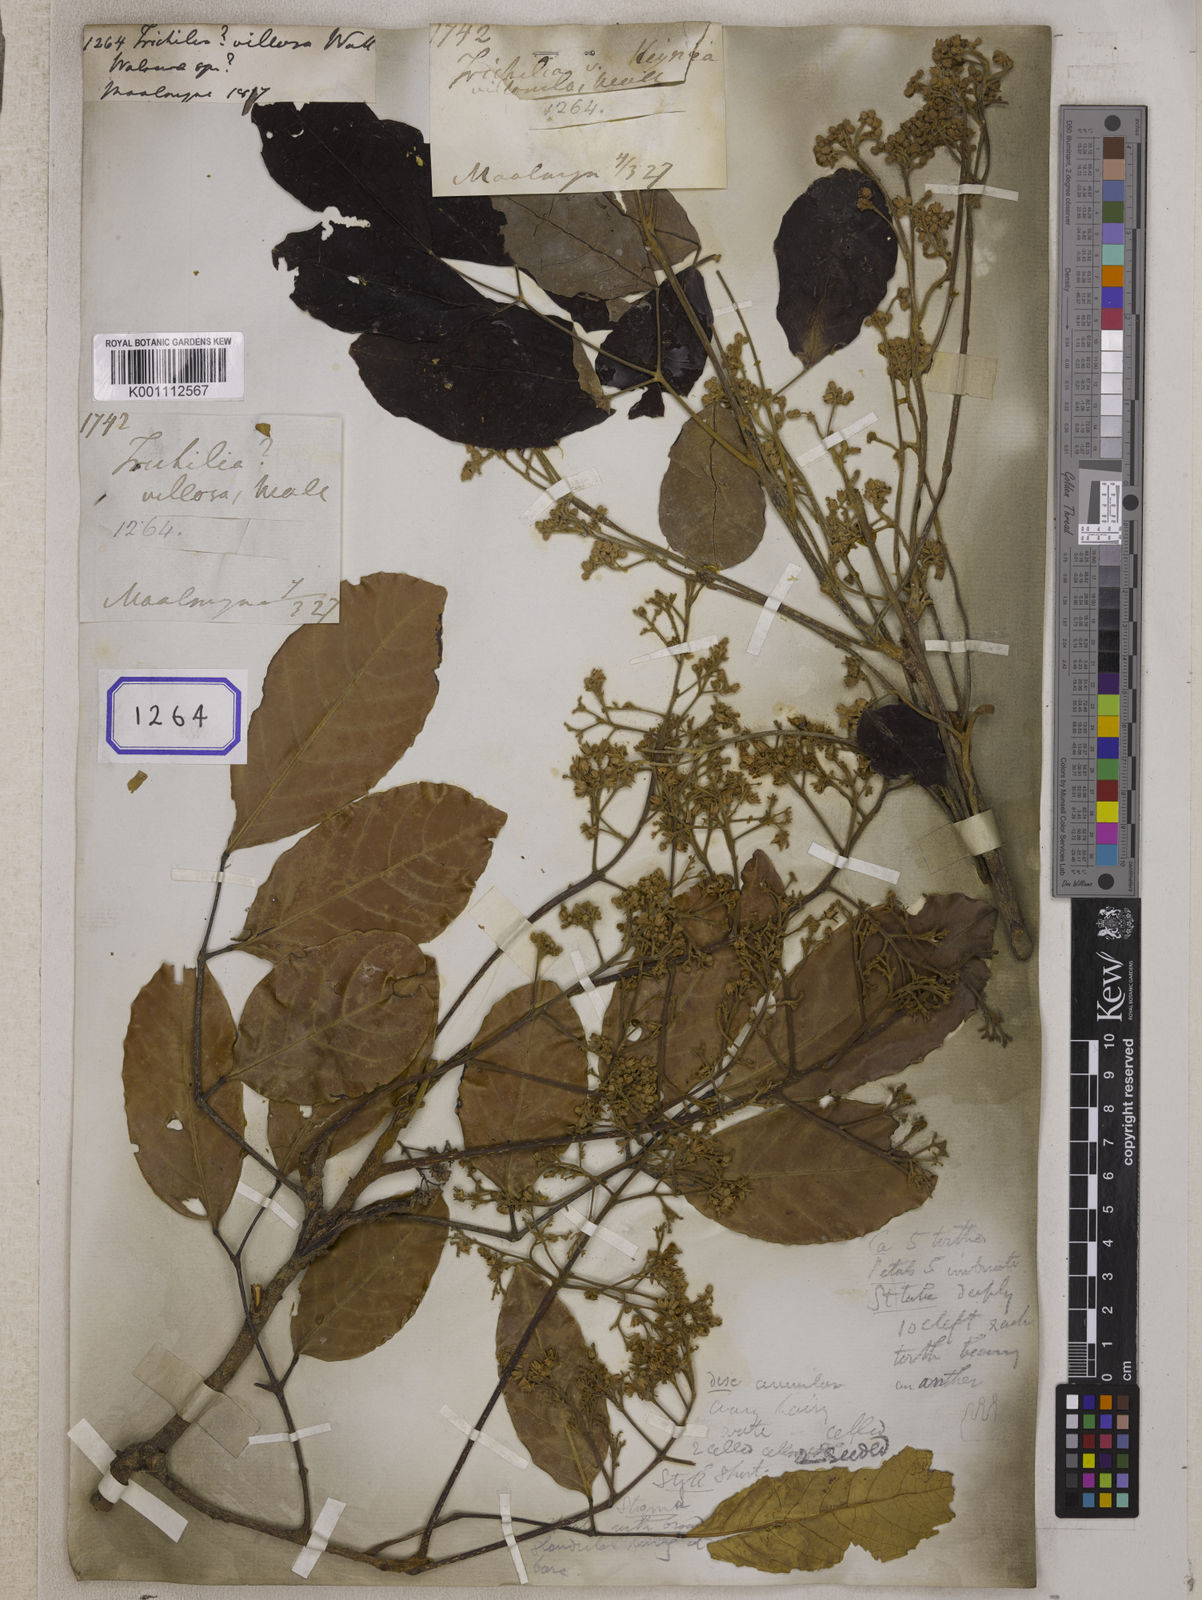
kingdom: Plantae
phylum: Tracheophyta
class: Magnoliopsida
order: Sapindales
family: Meliaceae
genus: Walsura
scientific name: Walsura villosa
